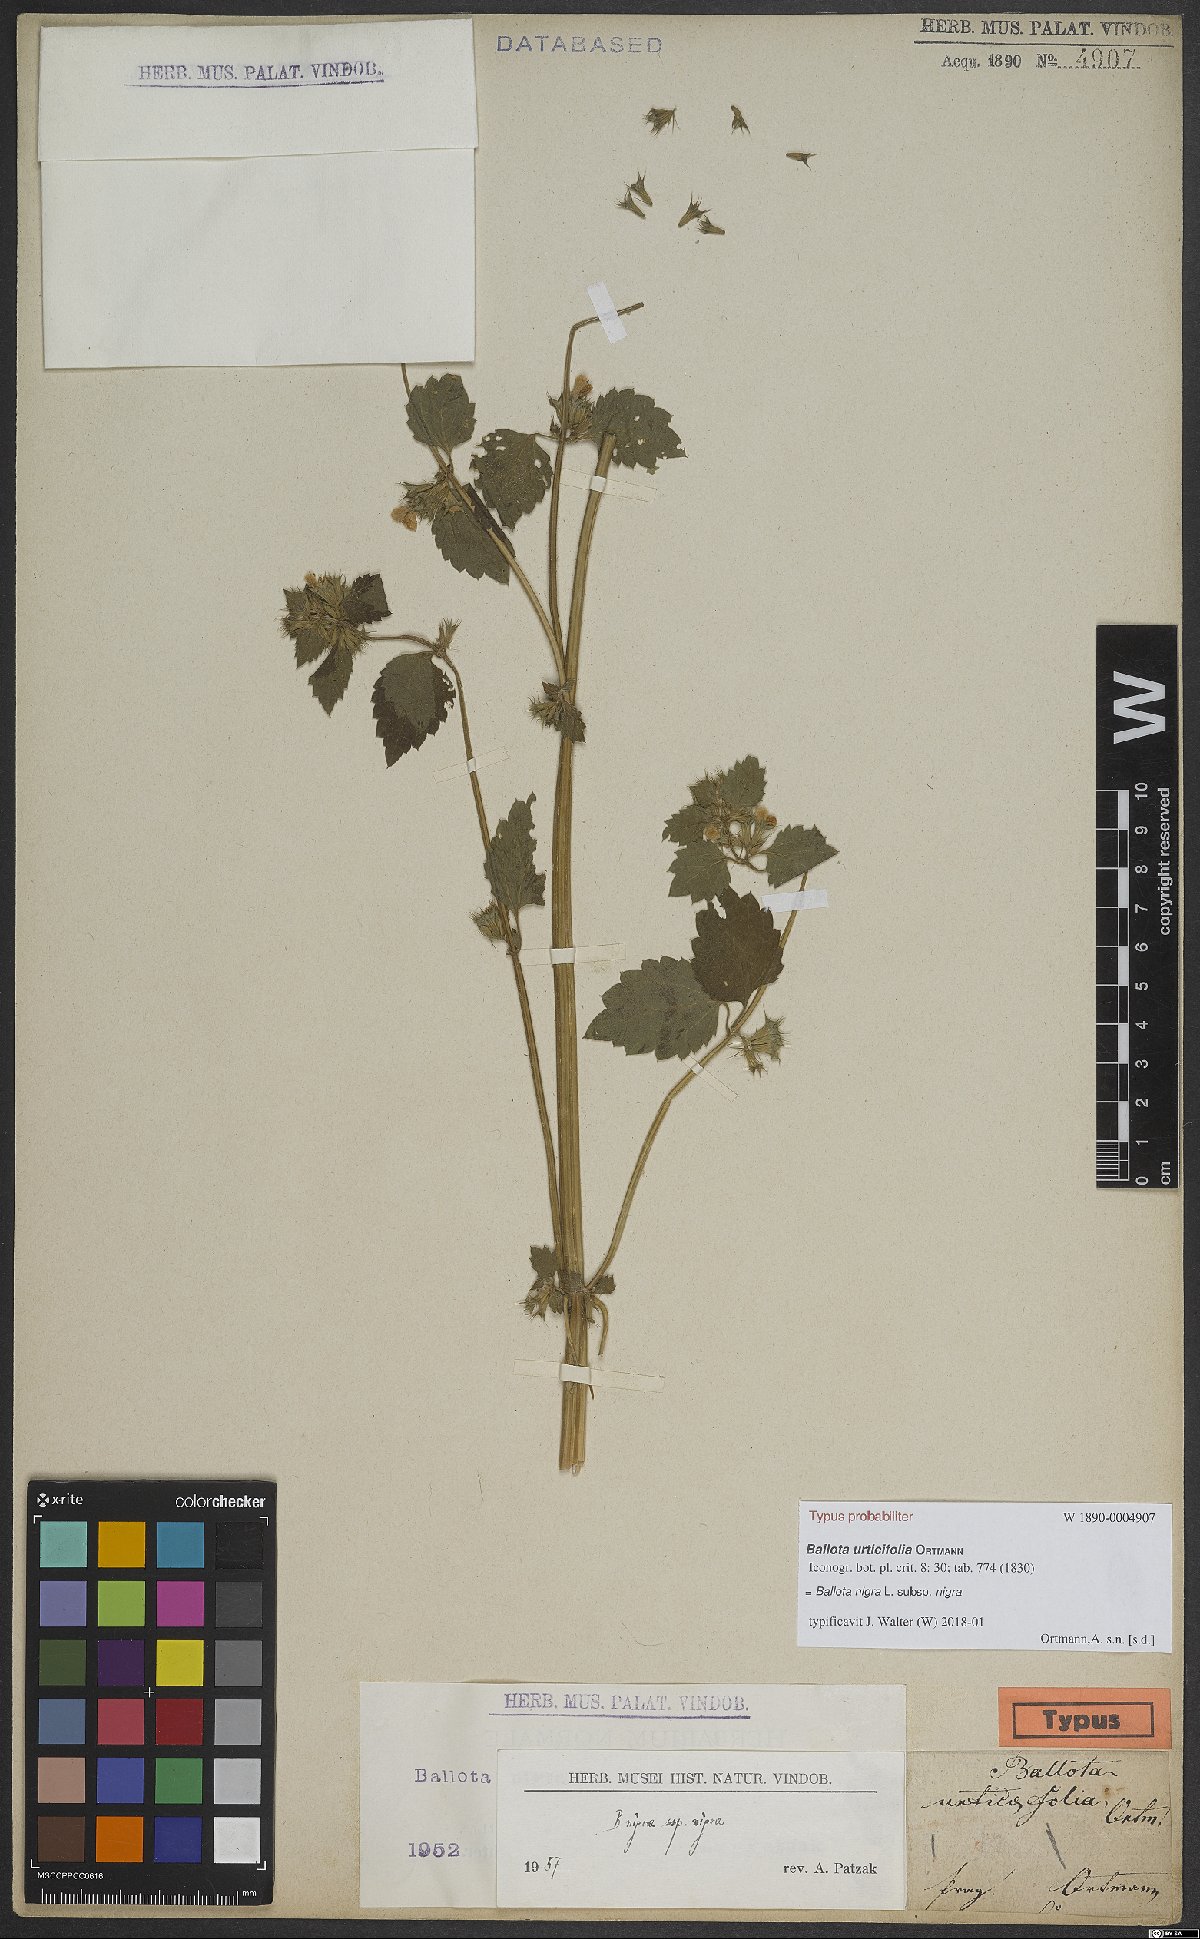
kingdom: Plantae
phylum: Tracheophyta
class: Magnoliopsida
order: Lamiales
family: Lamiaceae
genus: Ballota
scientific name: Ballota nigra
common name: Black horehound
